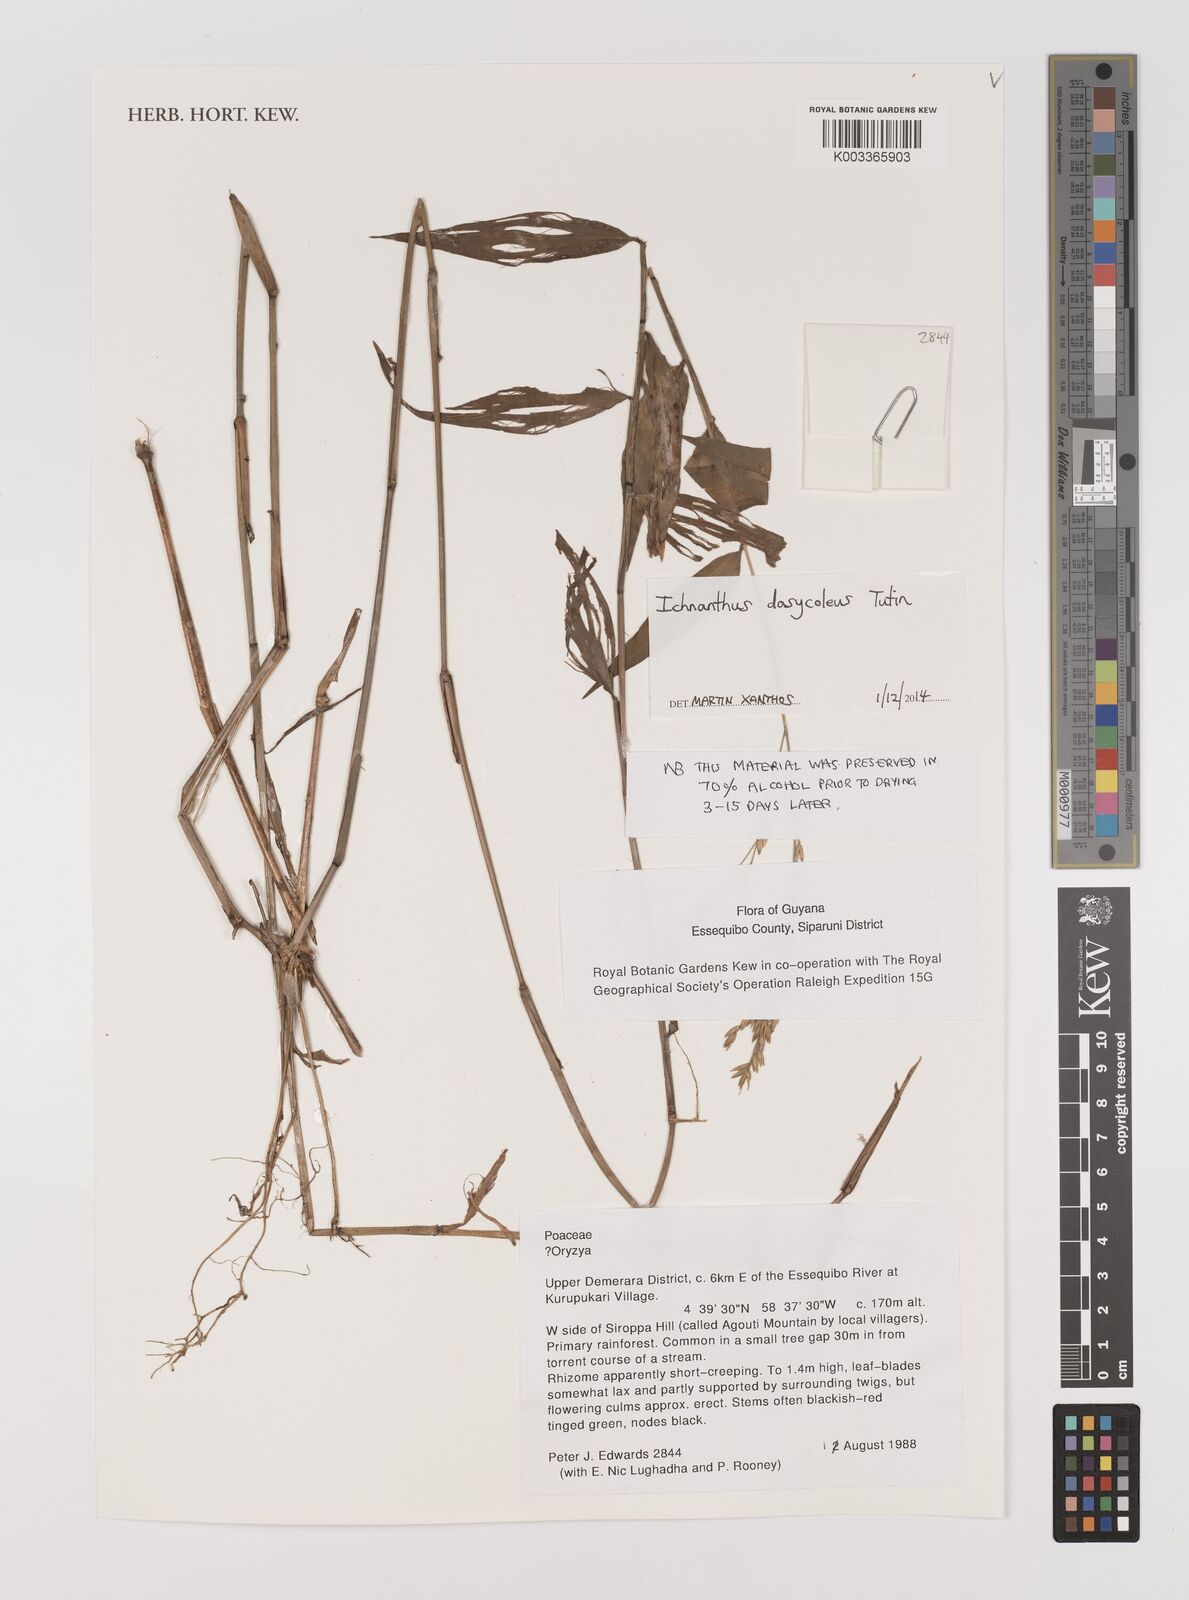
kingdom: Plantae
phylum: Tracheophyta
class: Liliopsida
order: Poales
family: Poaceae
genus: Ichnanthus
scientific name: Ichnanthus dasycoleus
